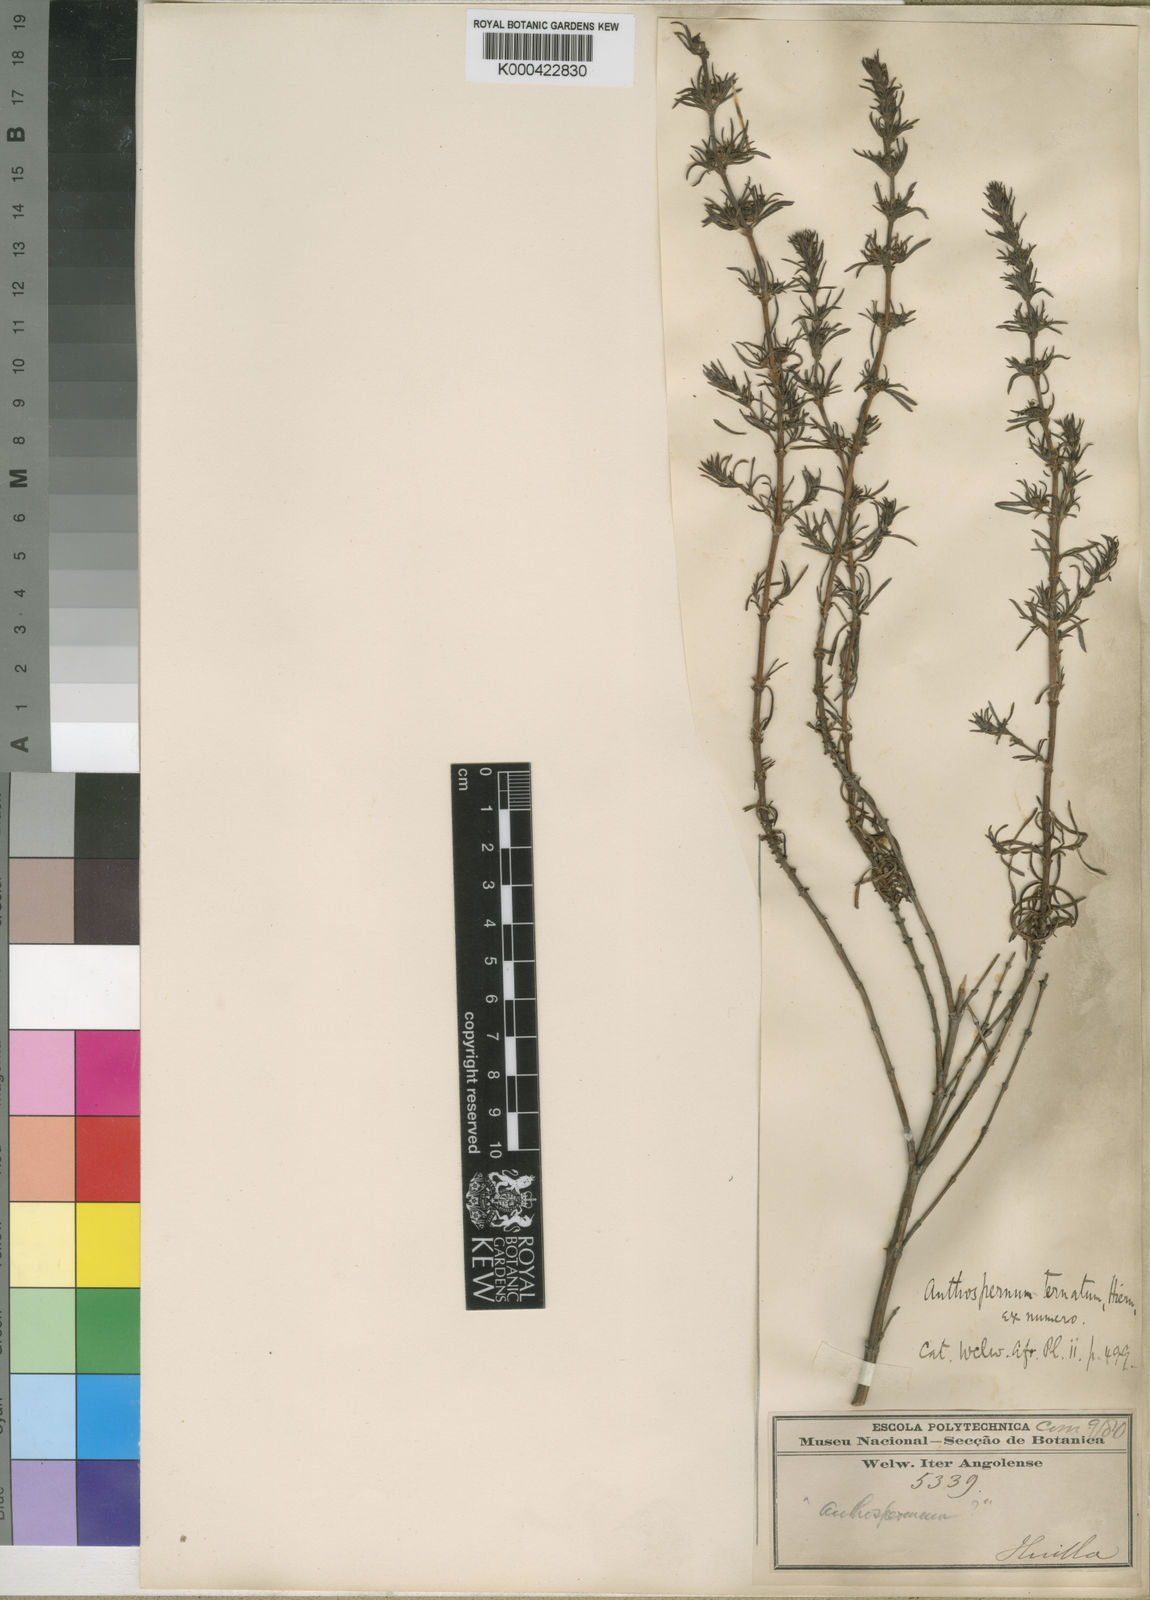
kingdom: Plantae
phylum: Tracheophyta
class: Magnoliopsida
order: Gentianales
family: Rubiaceae
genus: Anthospermum
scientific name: Anthospermum ternatum
